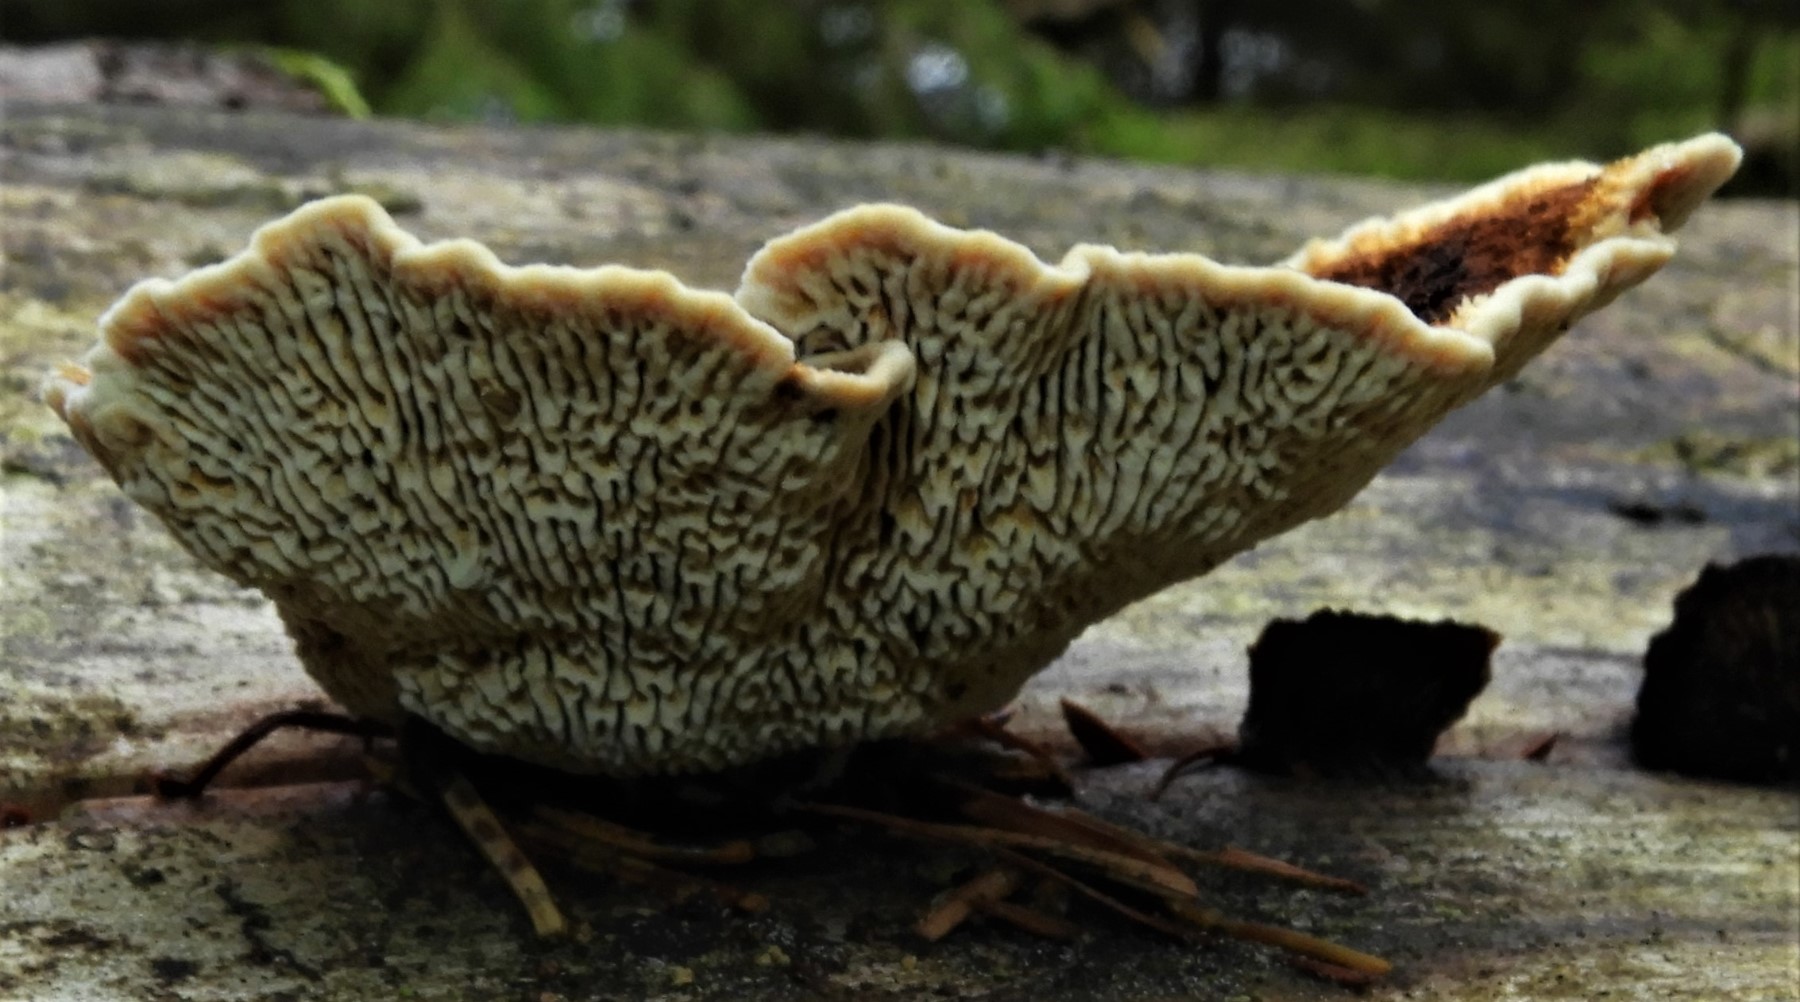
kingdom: Fungi
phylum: Basidiomycota
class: Agaricomycetes
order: Gloeophyllales
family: Gloeophyllaceae
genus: Gloeophyllum
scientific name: Gloeophyllum sepiarium
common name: fyrre-korkhat
